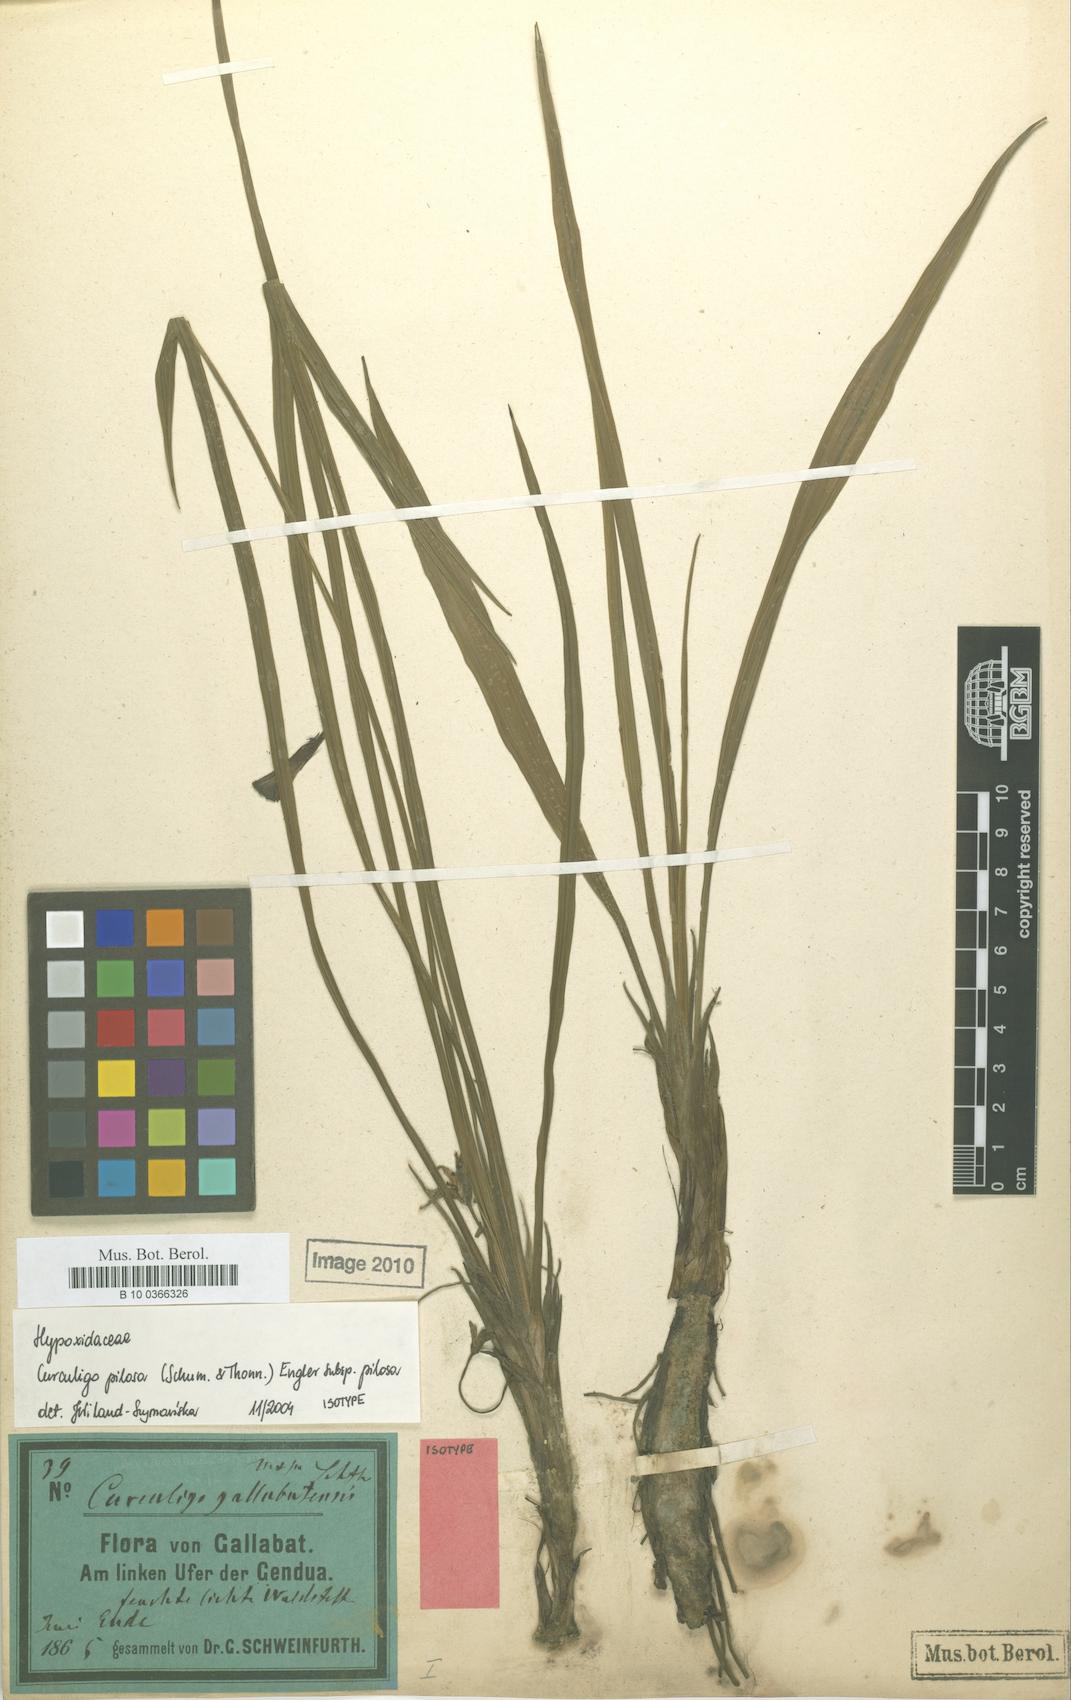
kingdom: Plantae
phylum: Tracheophyta
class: Liliopsida
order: Asparagales
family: Hypoxidaceae
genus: Curculigo
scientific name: Curculigo pilosa
